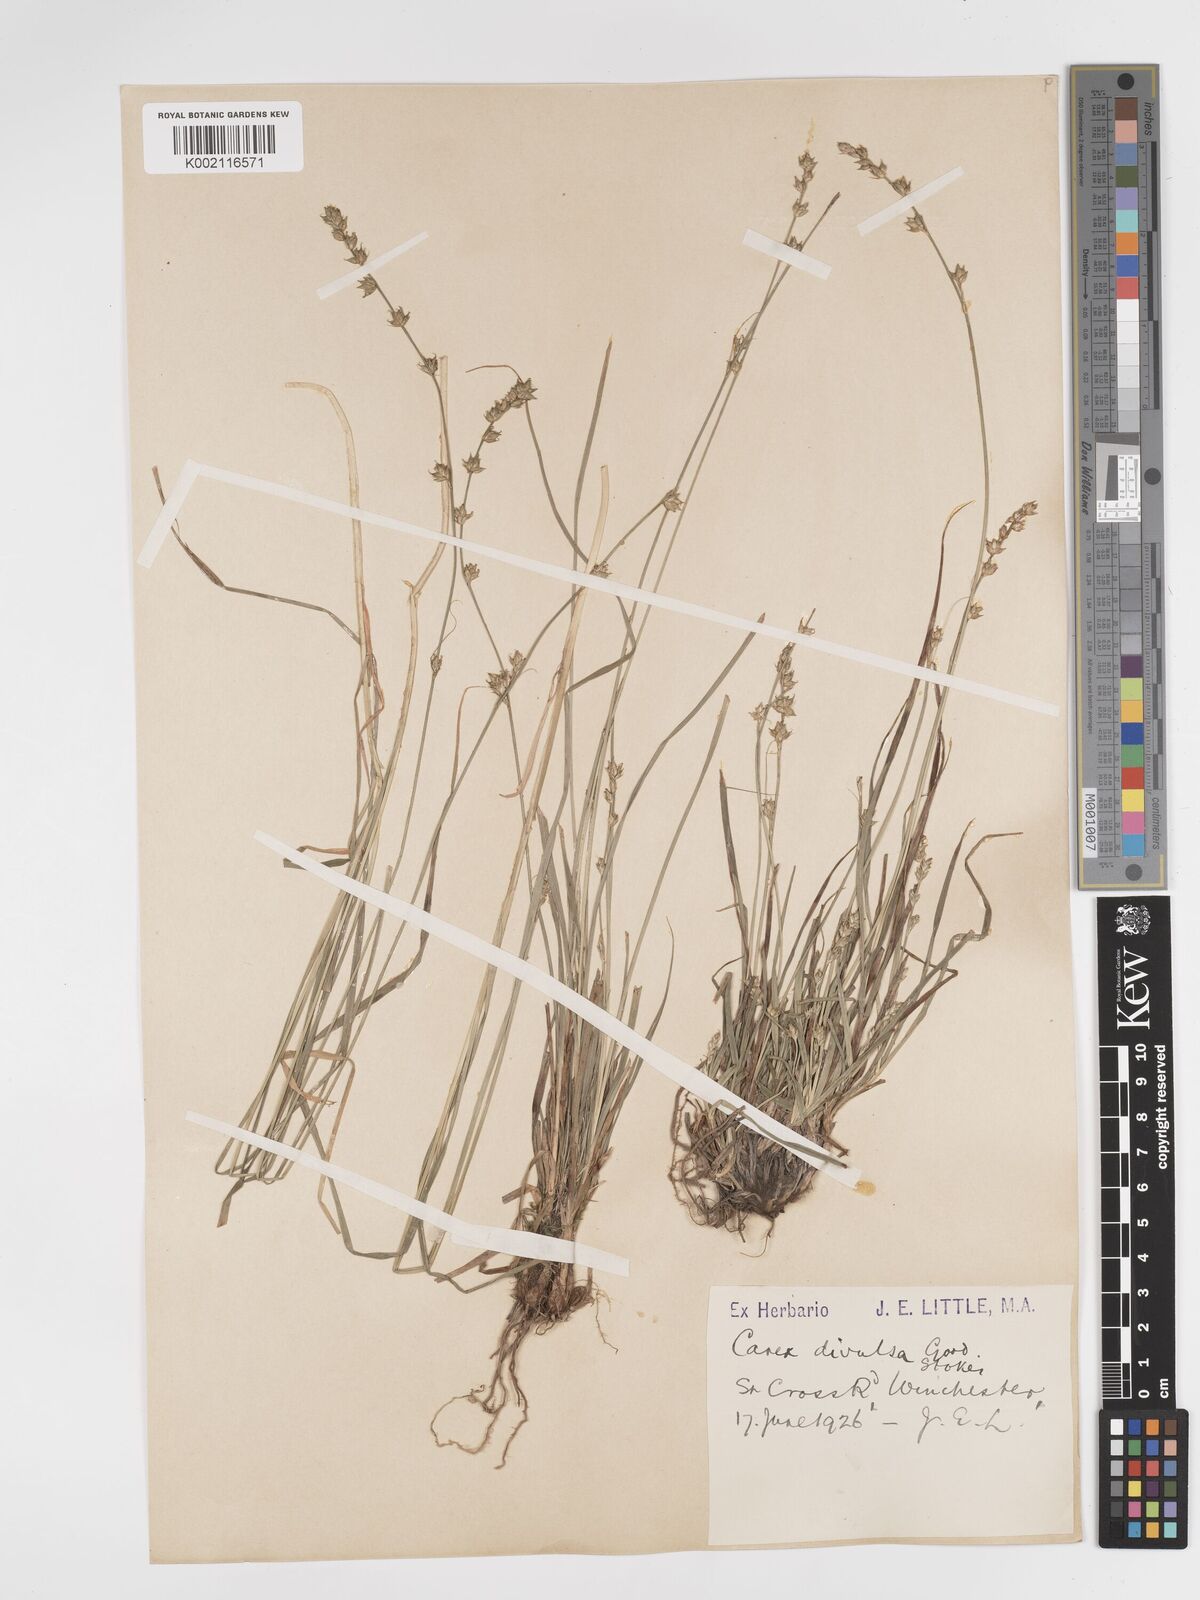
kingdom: Plantae
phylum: Tracheophyta
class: Liliopsida
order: Poales
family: Cyperaceae
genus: Carex
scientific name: Carex divulsa
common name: Grassland sedge
